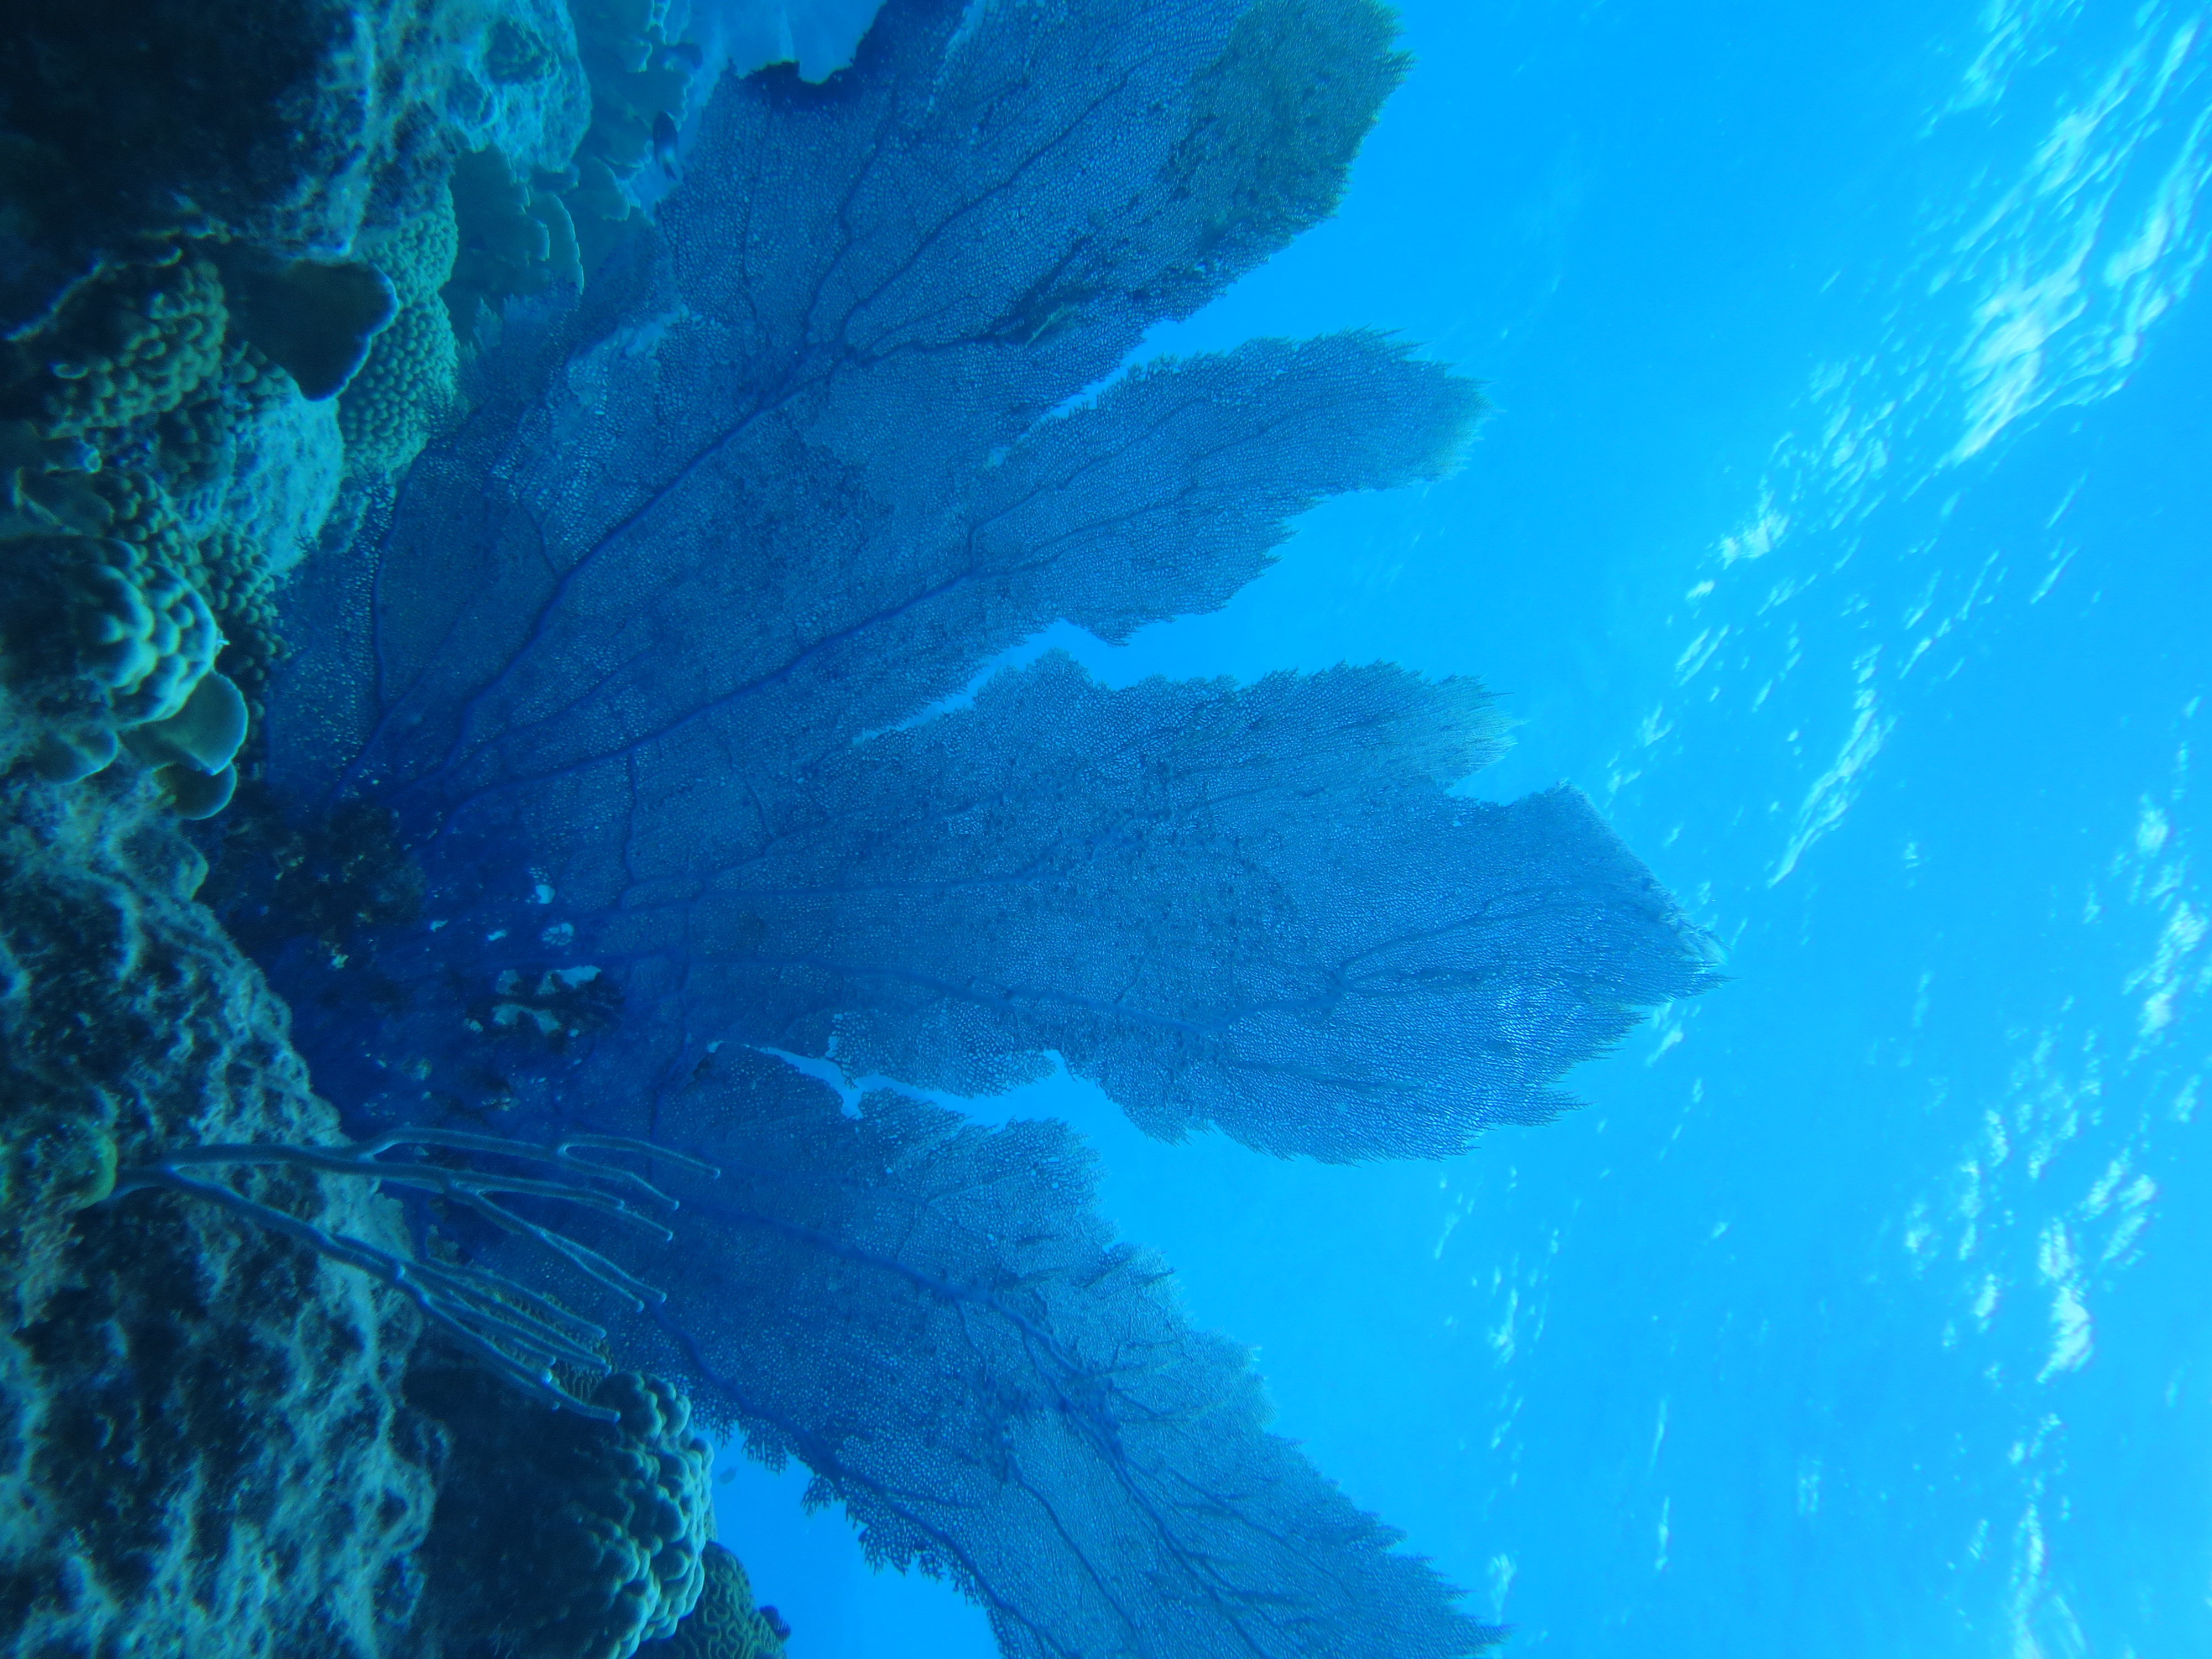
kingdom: Animalia
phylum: Cnidaria
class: Anthozoa
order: Malacalcyonacea
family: Gorgoniidae
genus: Gorgonia
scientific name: Gorgonia
